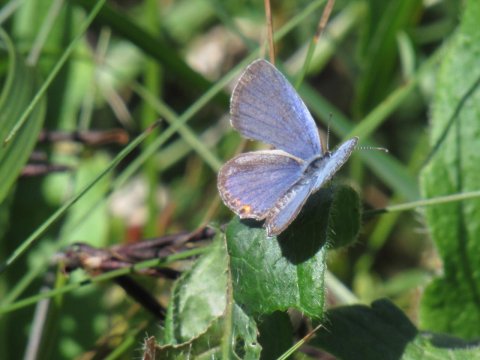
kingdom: Animalia
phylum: Arthropoda
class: Insecta
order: Lepidoptera
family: Lycaenidae
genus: Elkalyce
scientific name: Elkalyce comyntas
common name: Eastern Tailed-Blue
